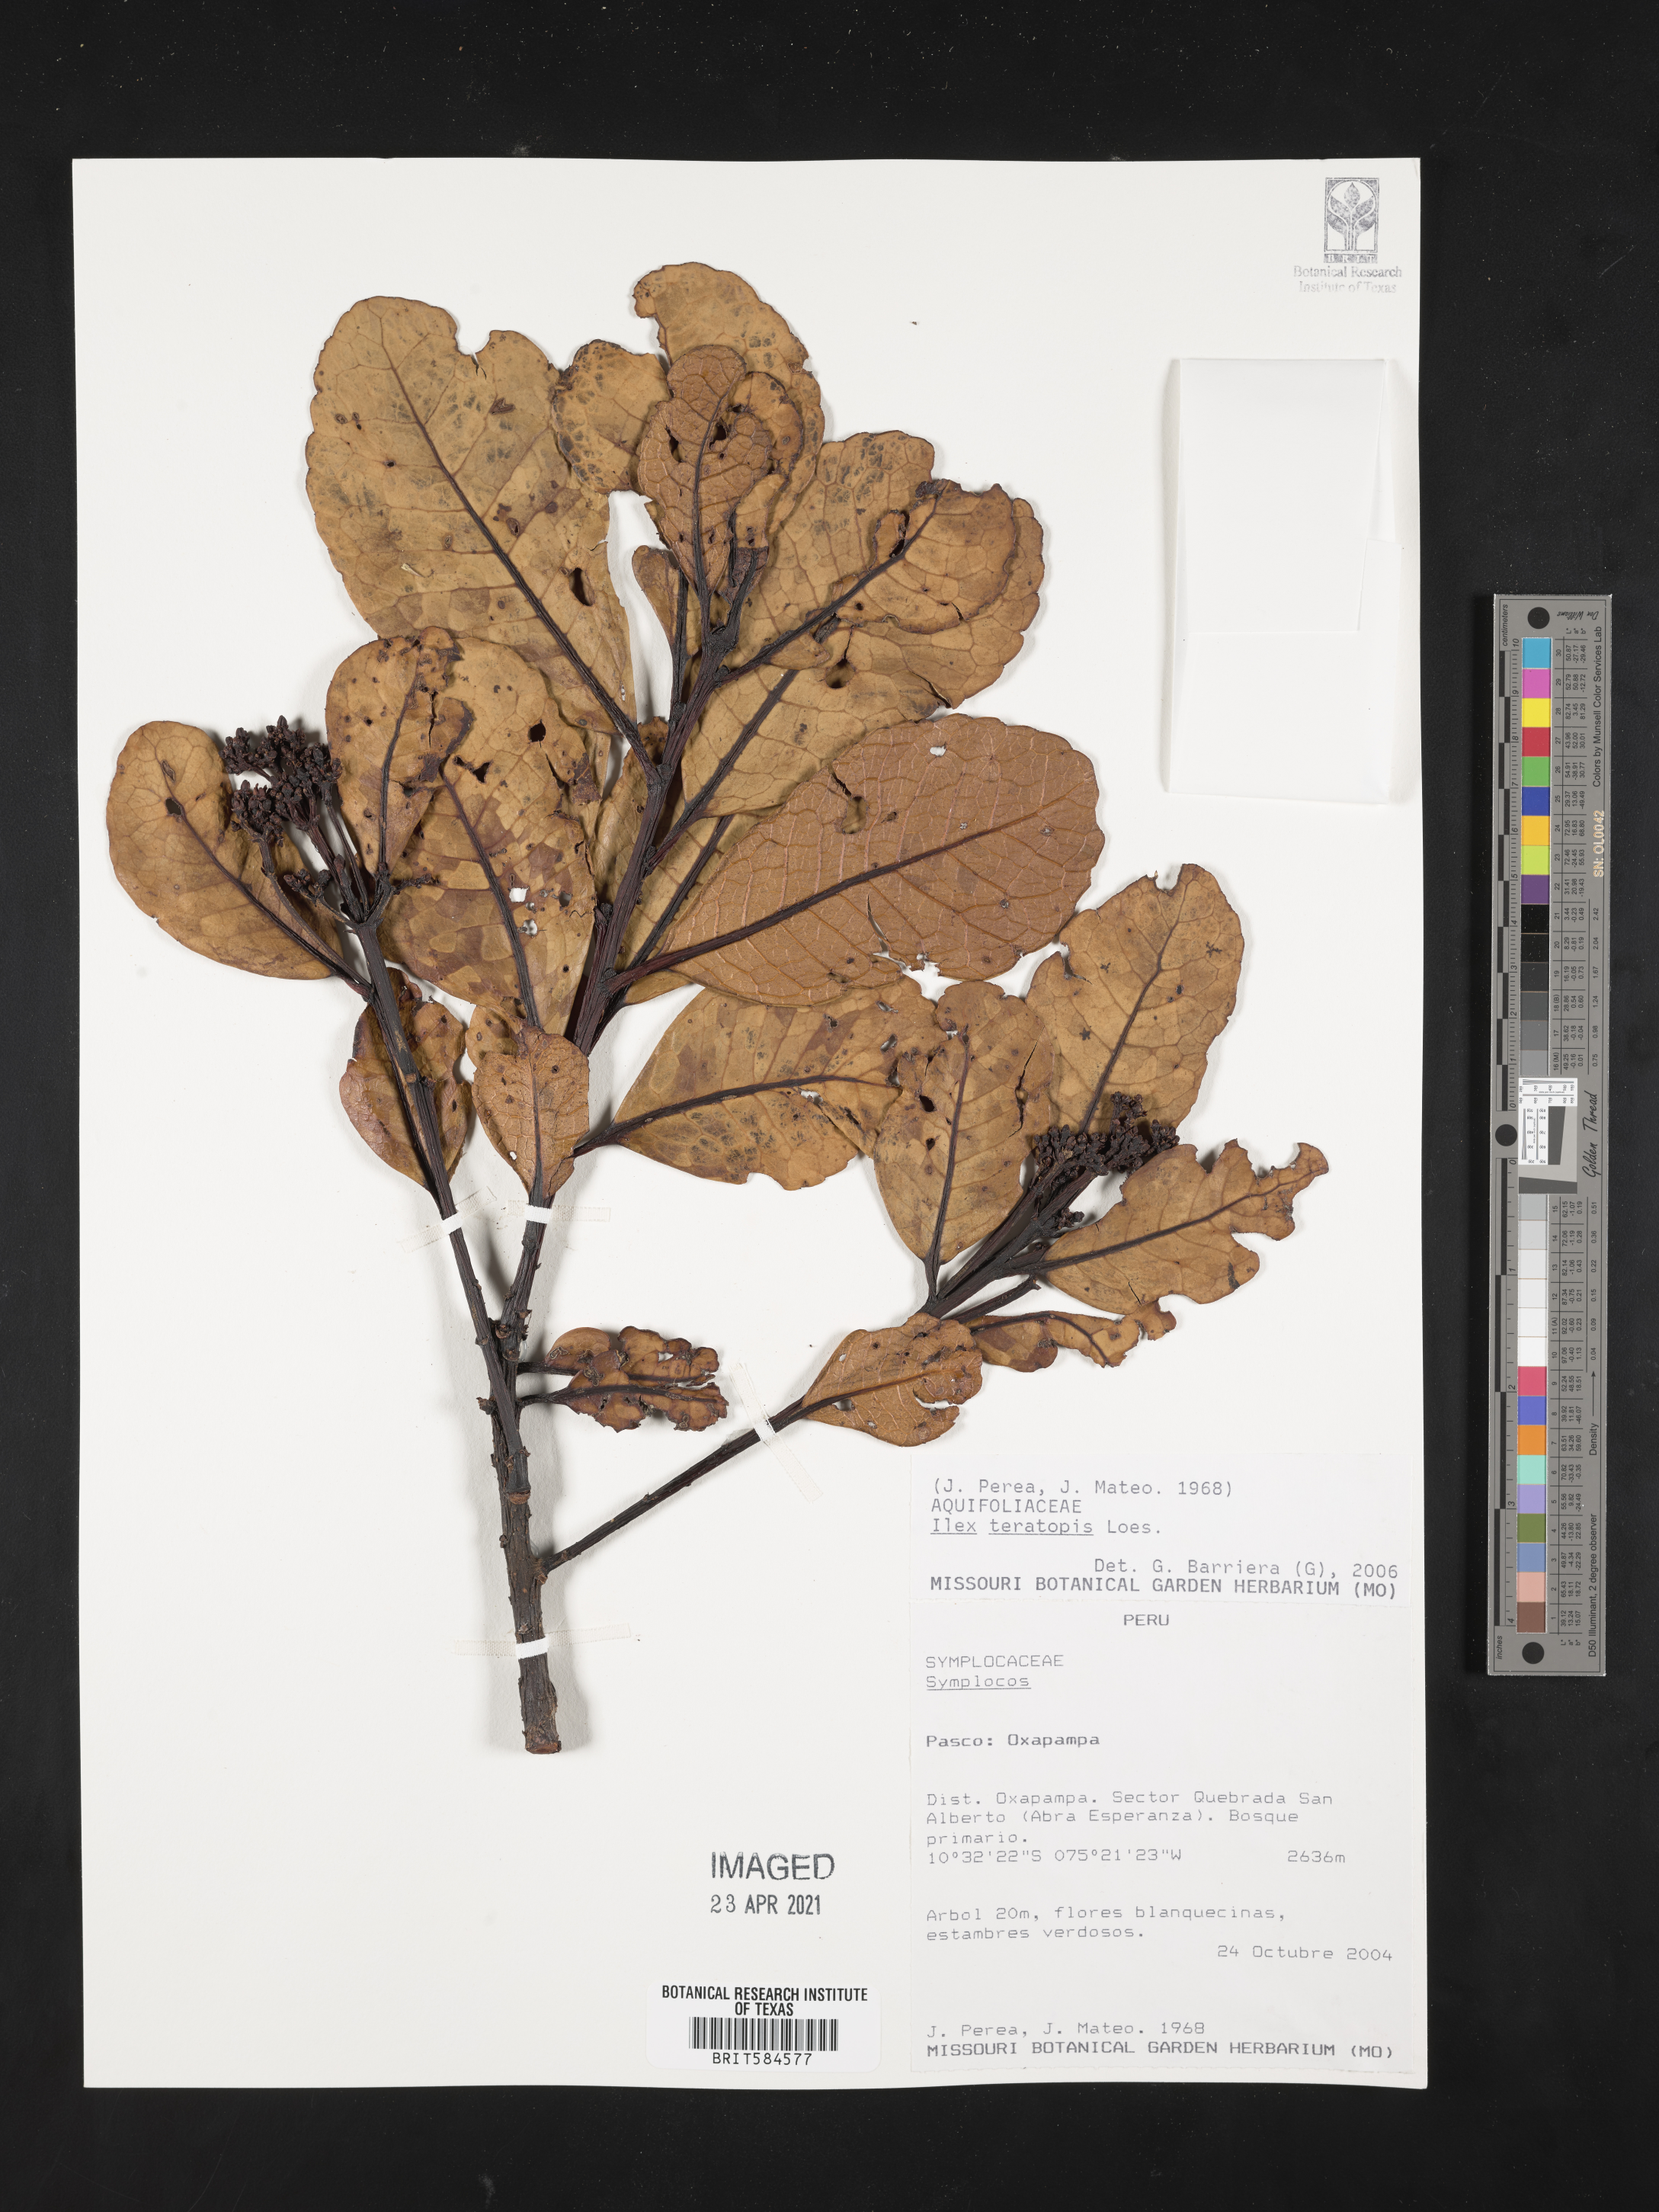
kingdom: Plantae
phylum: Tracheophyta
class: Magnoliopsida
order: Aquifoliales
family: Aquifoliaceae
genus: Ilex
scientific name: Ilex teratopis
